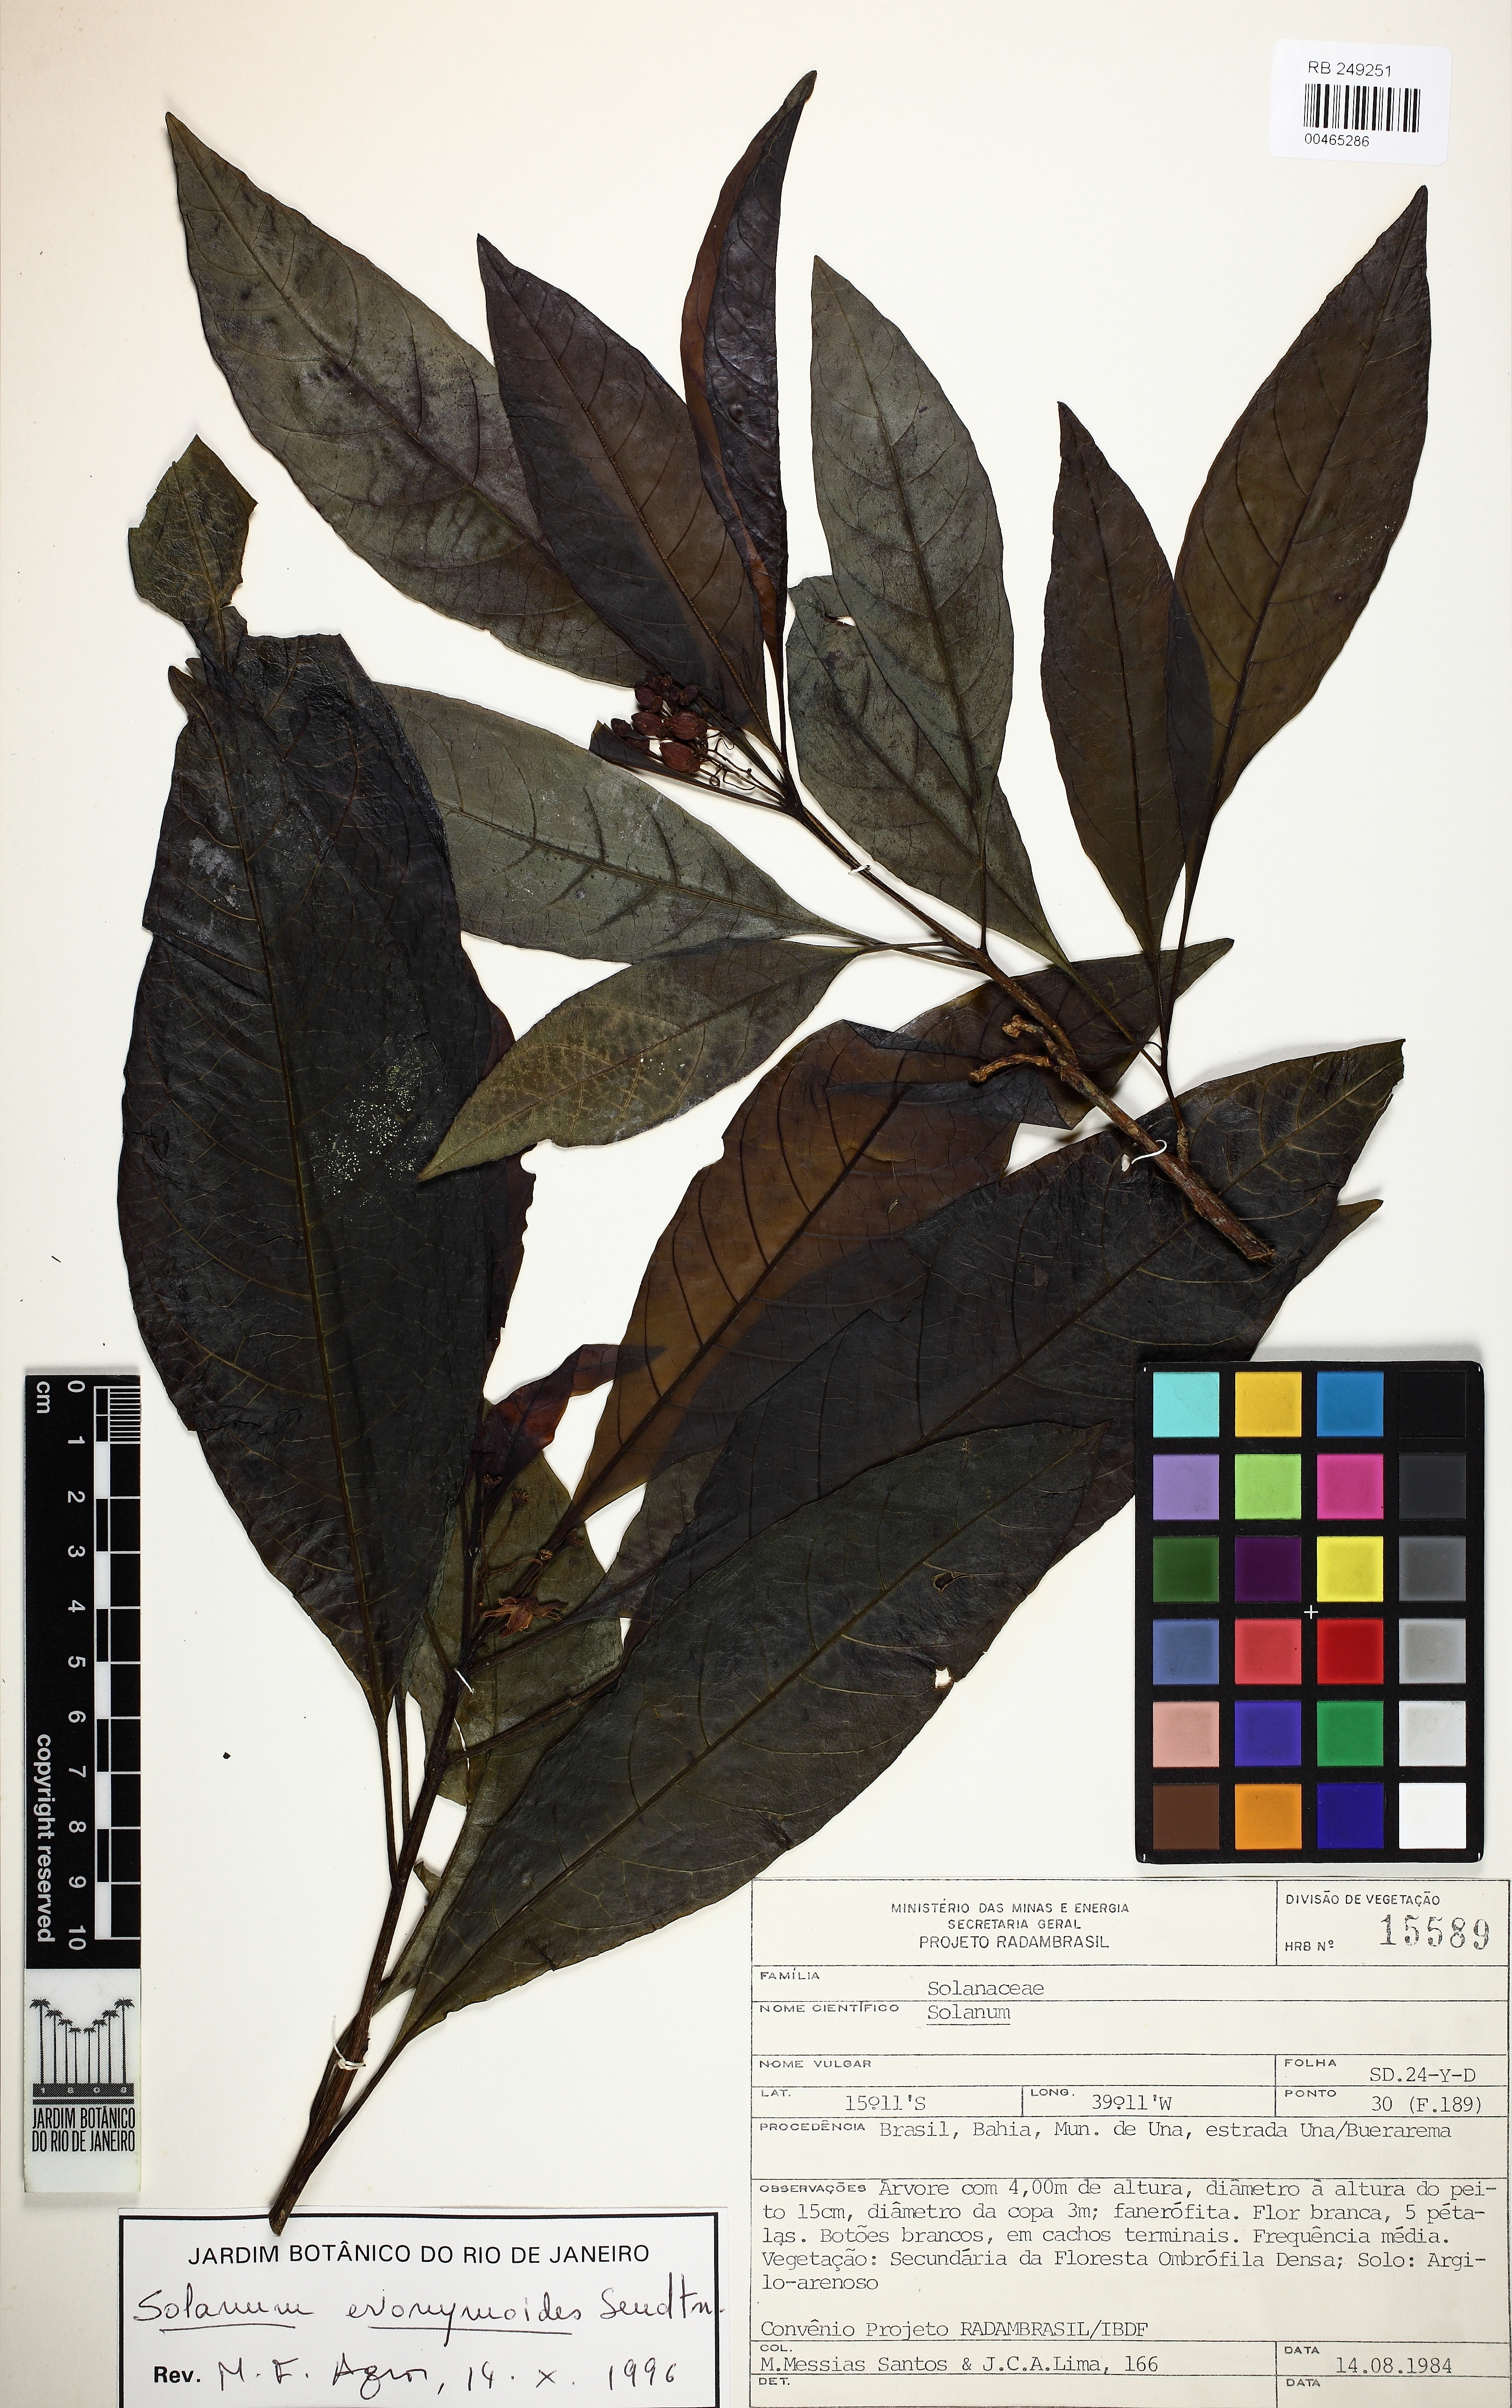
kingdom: Plantae
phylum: Tracheophyta
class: Magnoliopsida
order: Solanales
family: Solanaceae
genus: Solanum
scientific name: Solanum evonymoides
